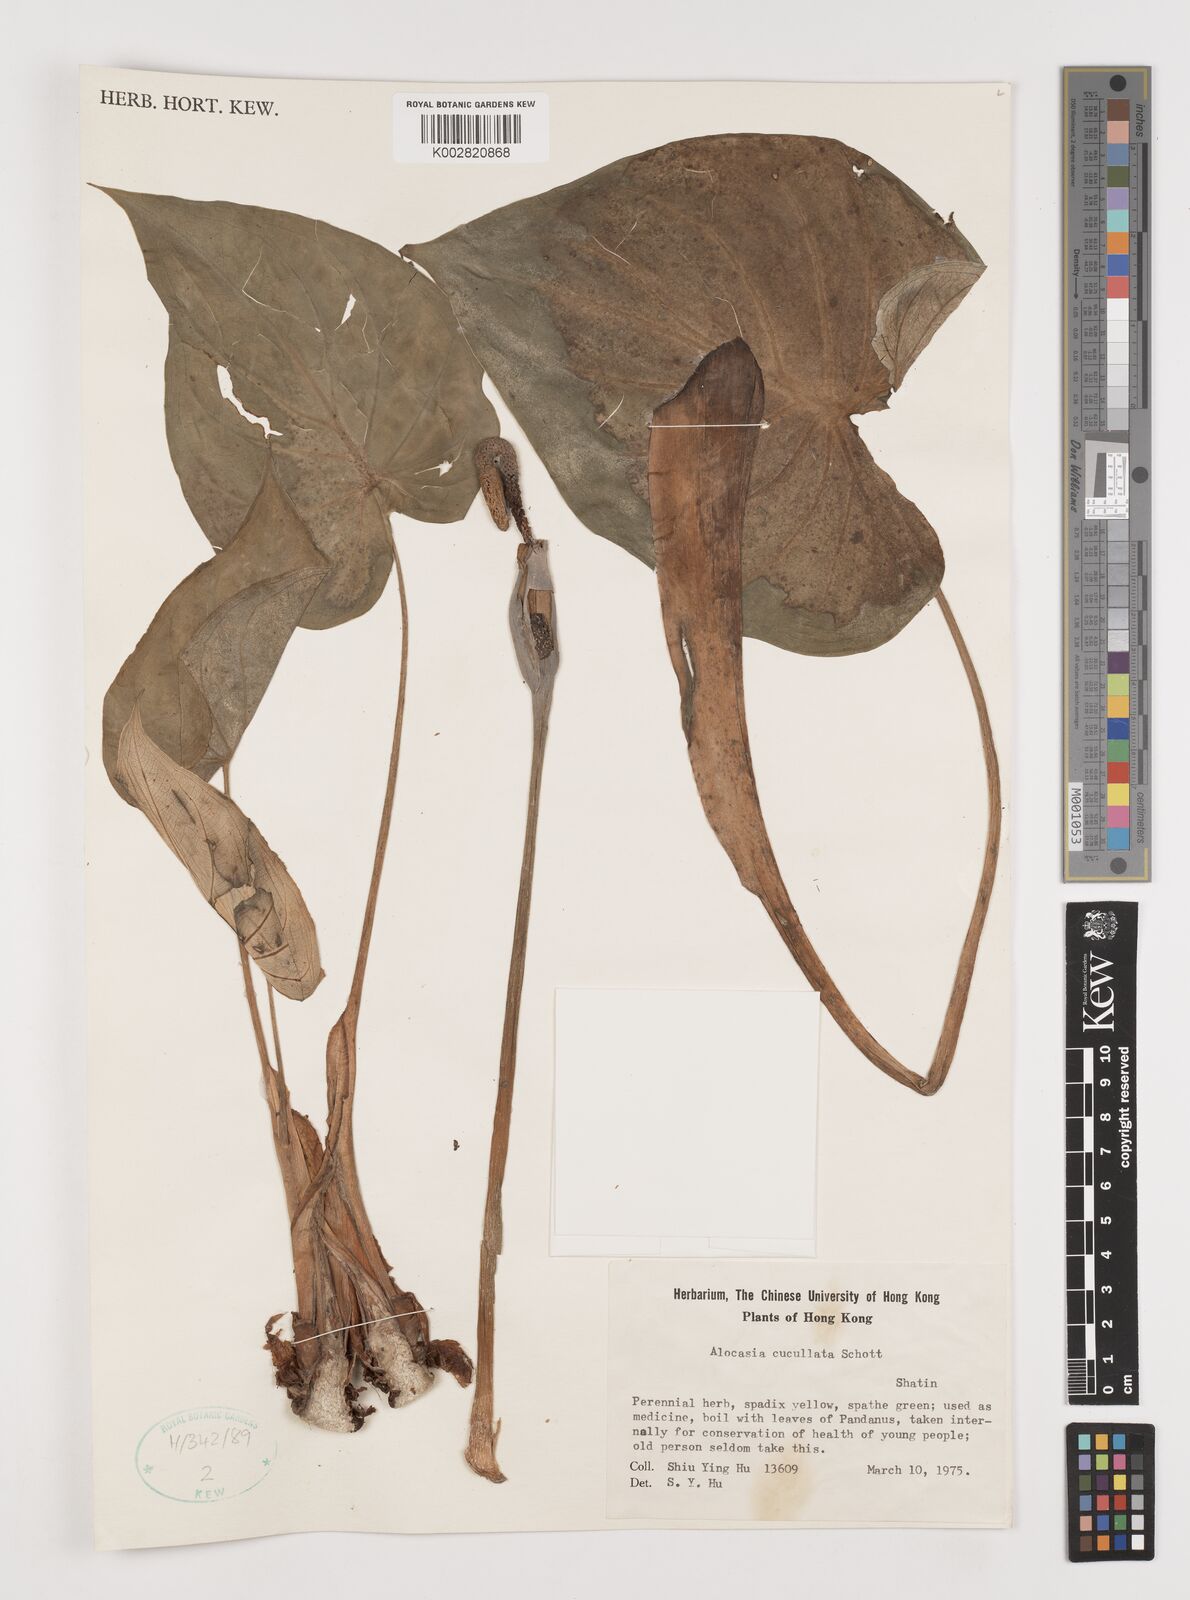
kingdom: Plantae
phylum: Tracheophyta
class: Liliopsida
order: Alismatales
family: Araceae
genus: Alocasia
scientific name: Alocasia cucullata
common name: Buddha's hand
